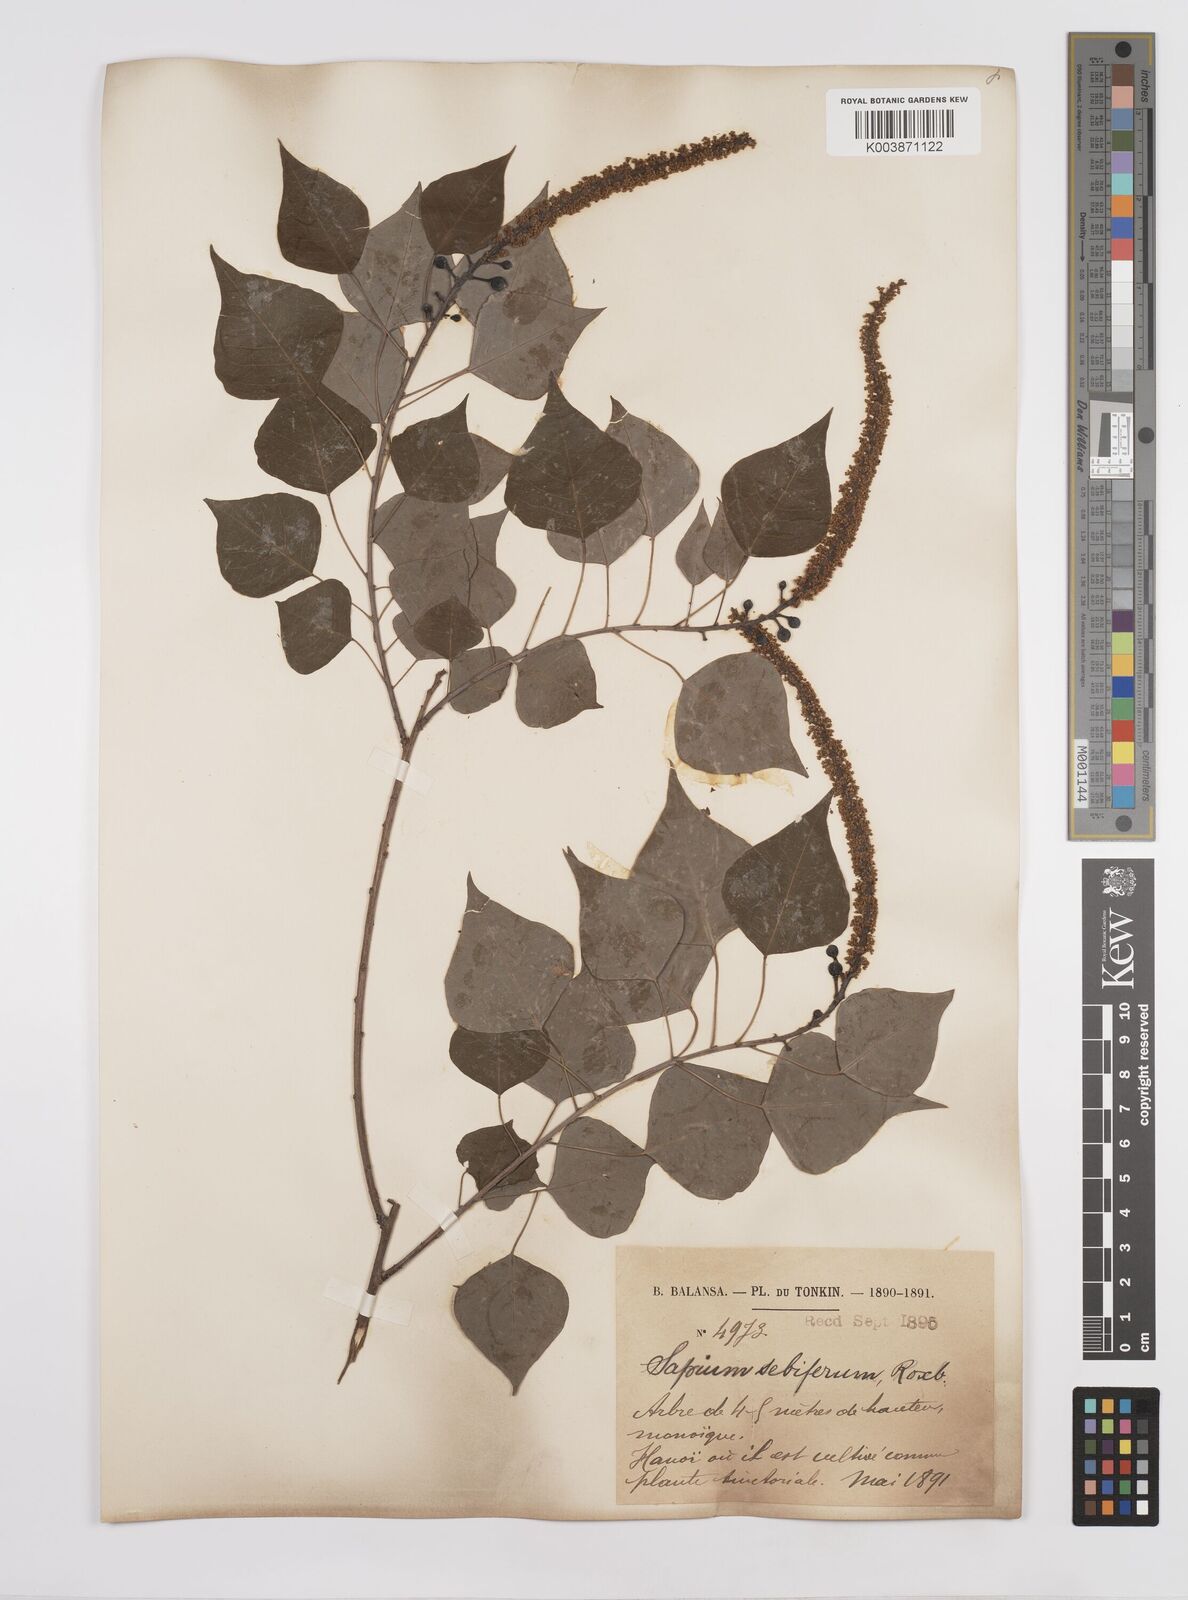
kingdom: Plantae
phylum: Tracheophyta
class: Magnoliopsida
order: Malpighiales
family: Euphorbiaceae
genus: Triadica
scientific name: Triadica sebifera
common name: Chinese tallow
